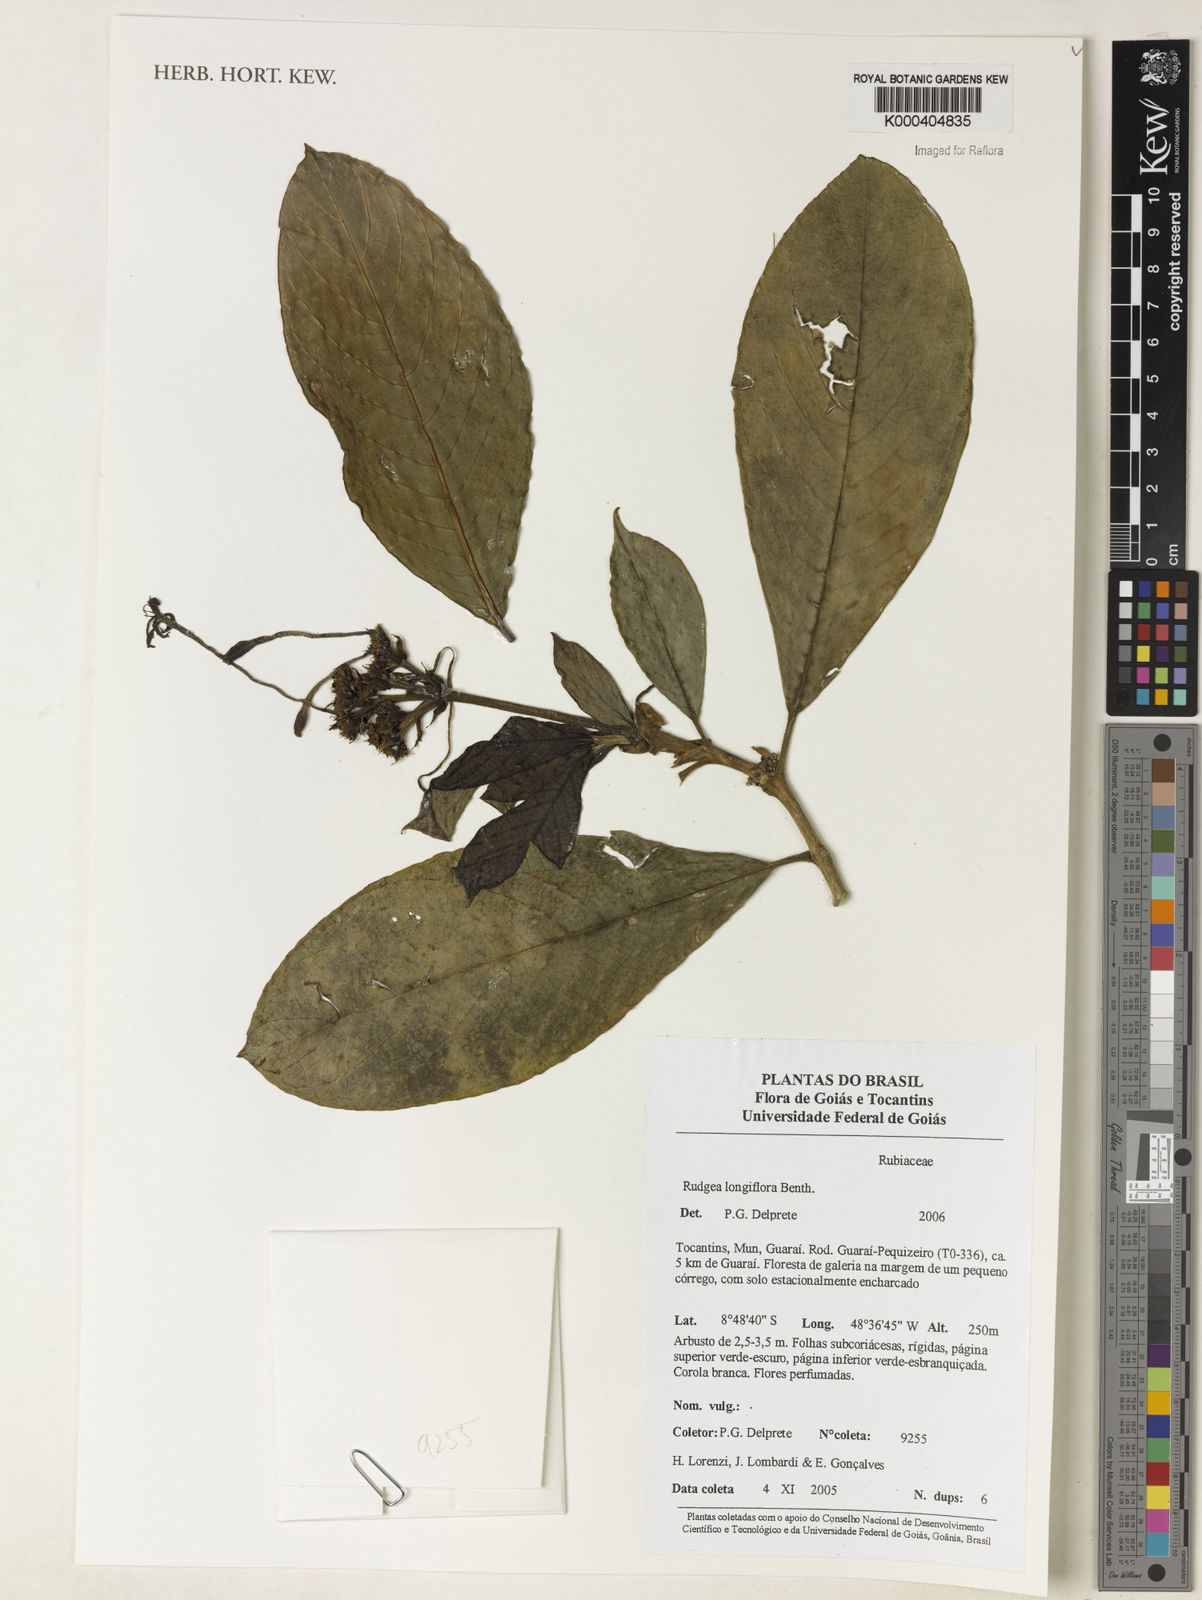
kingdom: Plantae
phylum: Tracheophyta
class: Magnoliopsida
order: Gentianales
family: Rubiaceae
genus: Rudgea
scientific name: Rudgea longiflora
